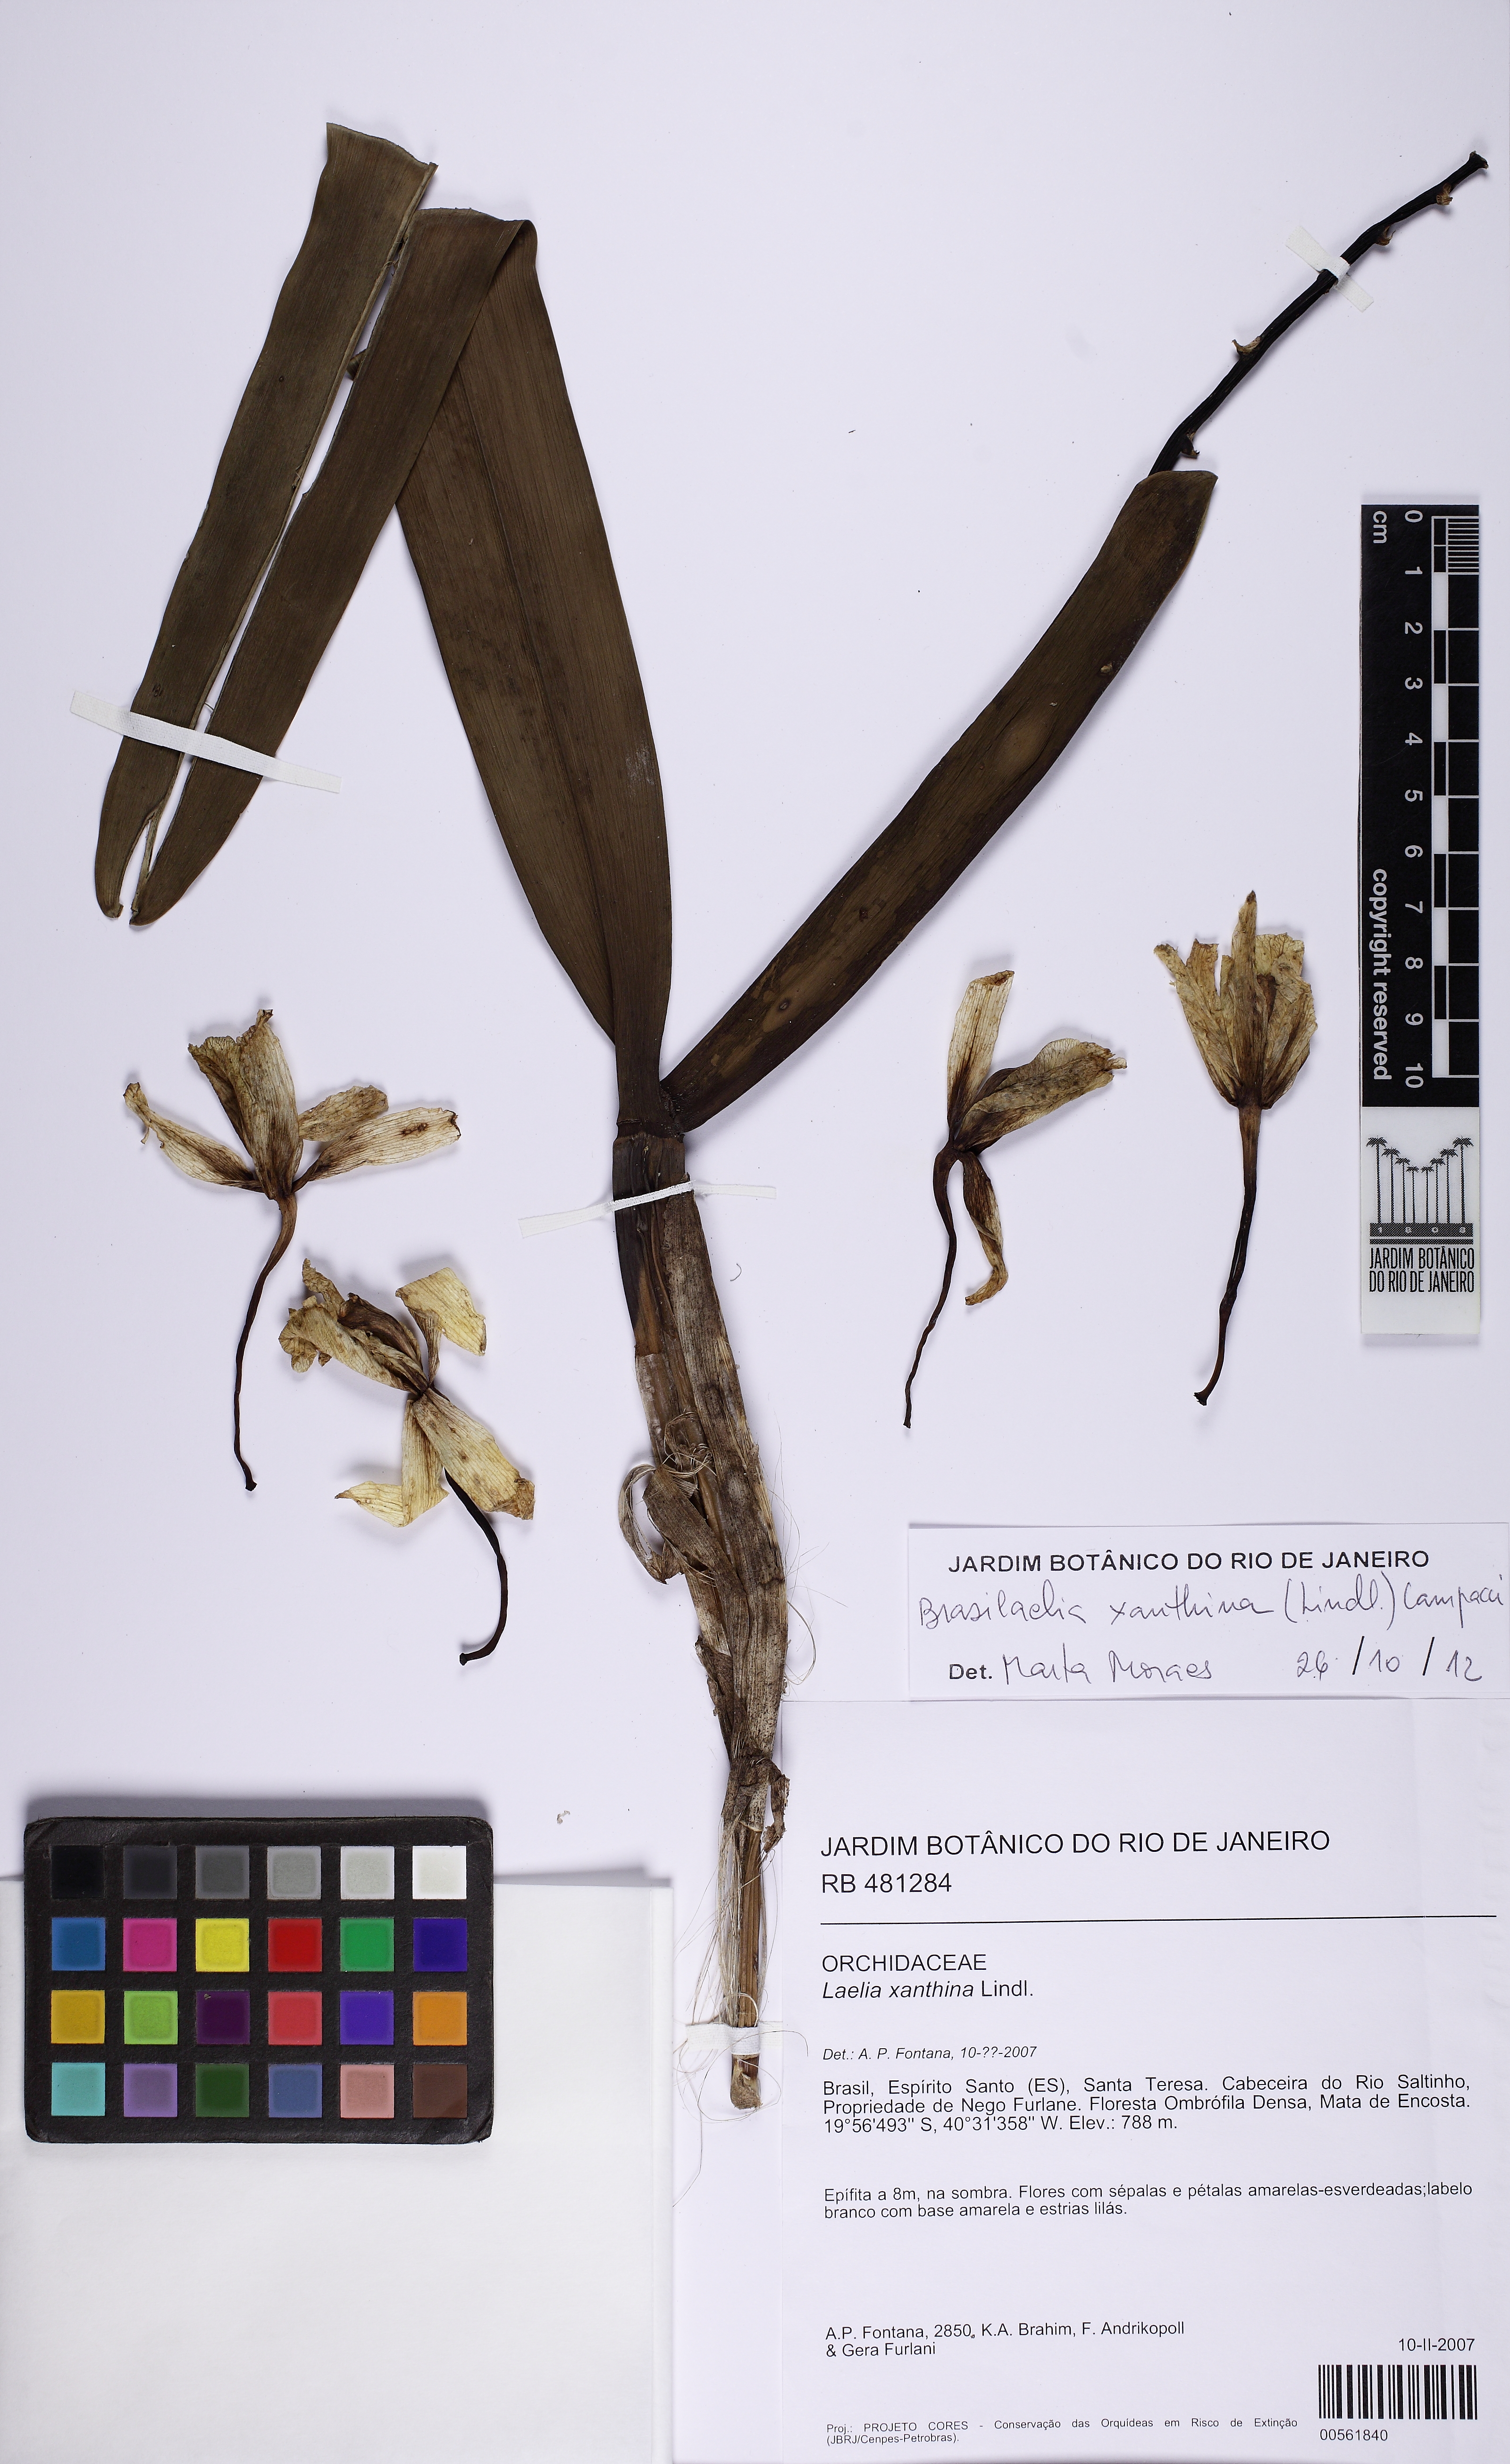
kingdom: Plantae
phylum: Tracheophyta
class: Liliopsida
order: Asparagales
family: Orchidaceae
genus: Cattleya
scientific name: Cattleya xanthina
